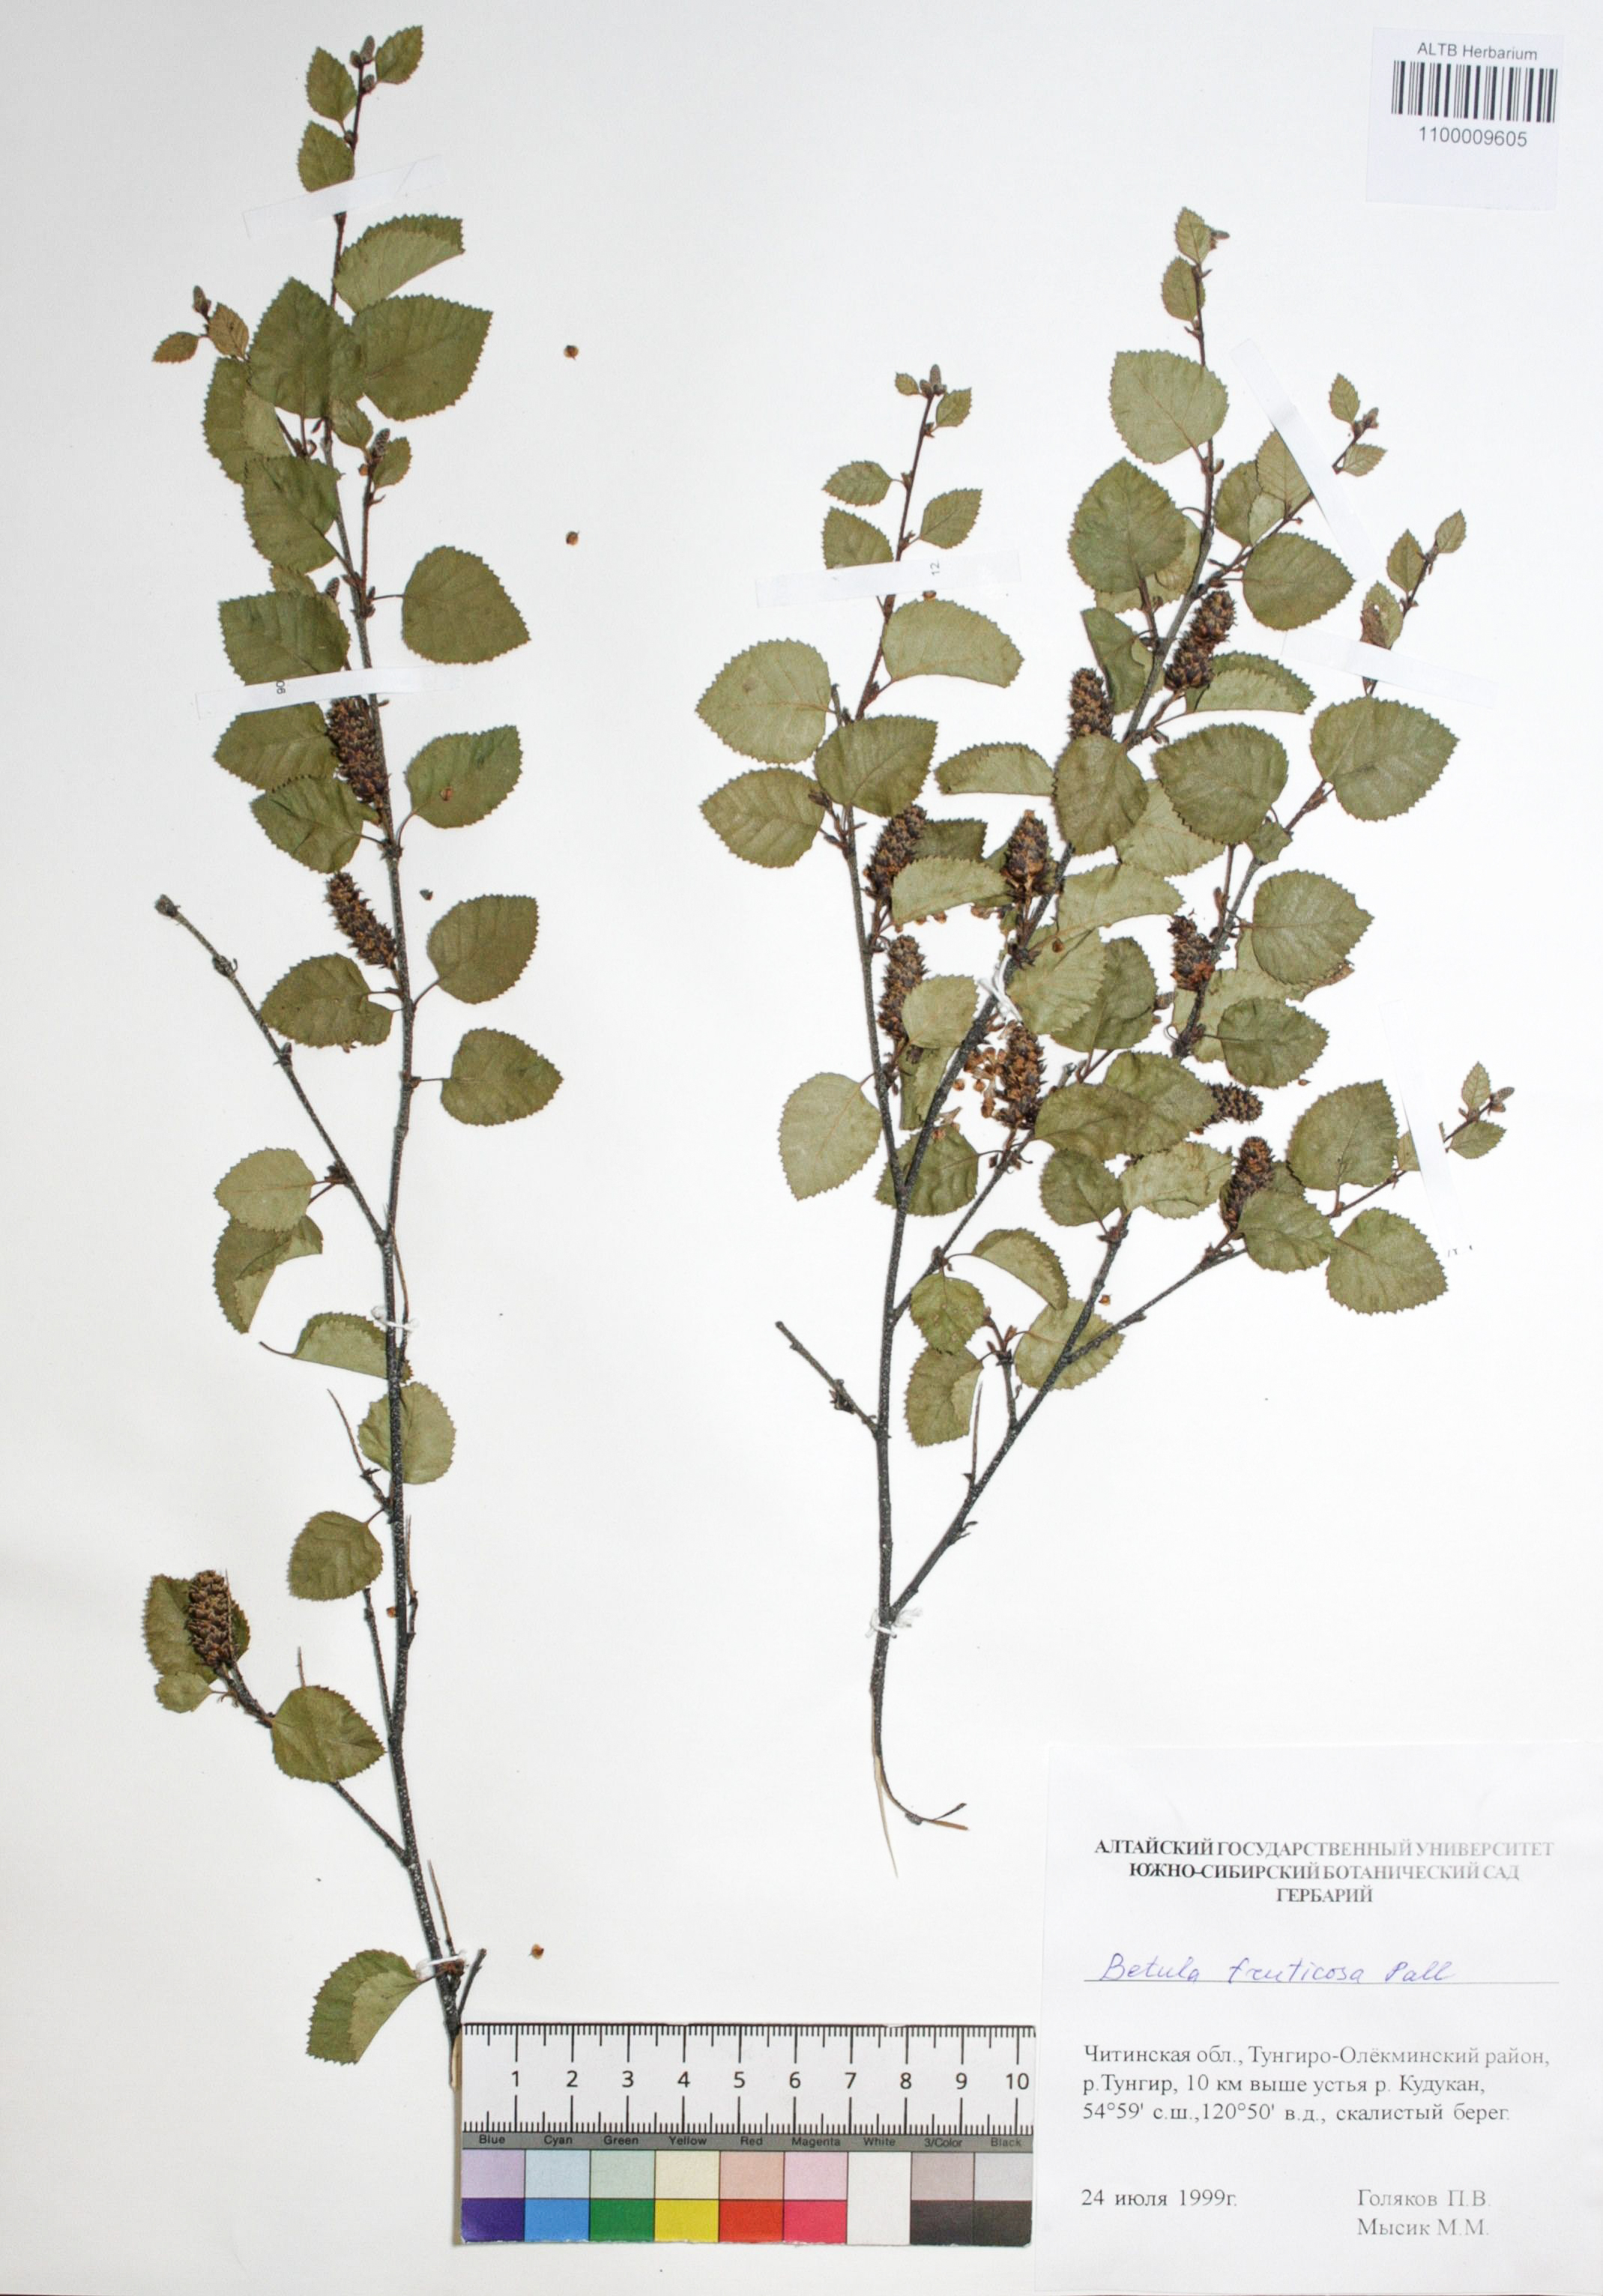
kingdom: Plantae
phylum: Tracheophyta
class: Magnoliopsida
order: Fagales
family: Betulaceae
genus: Betula
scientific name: Betula fruticosa
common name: Japanese bog birch
